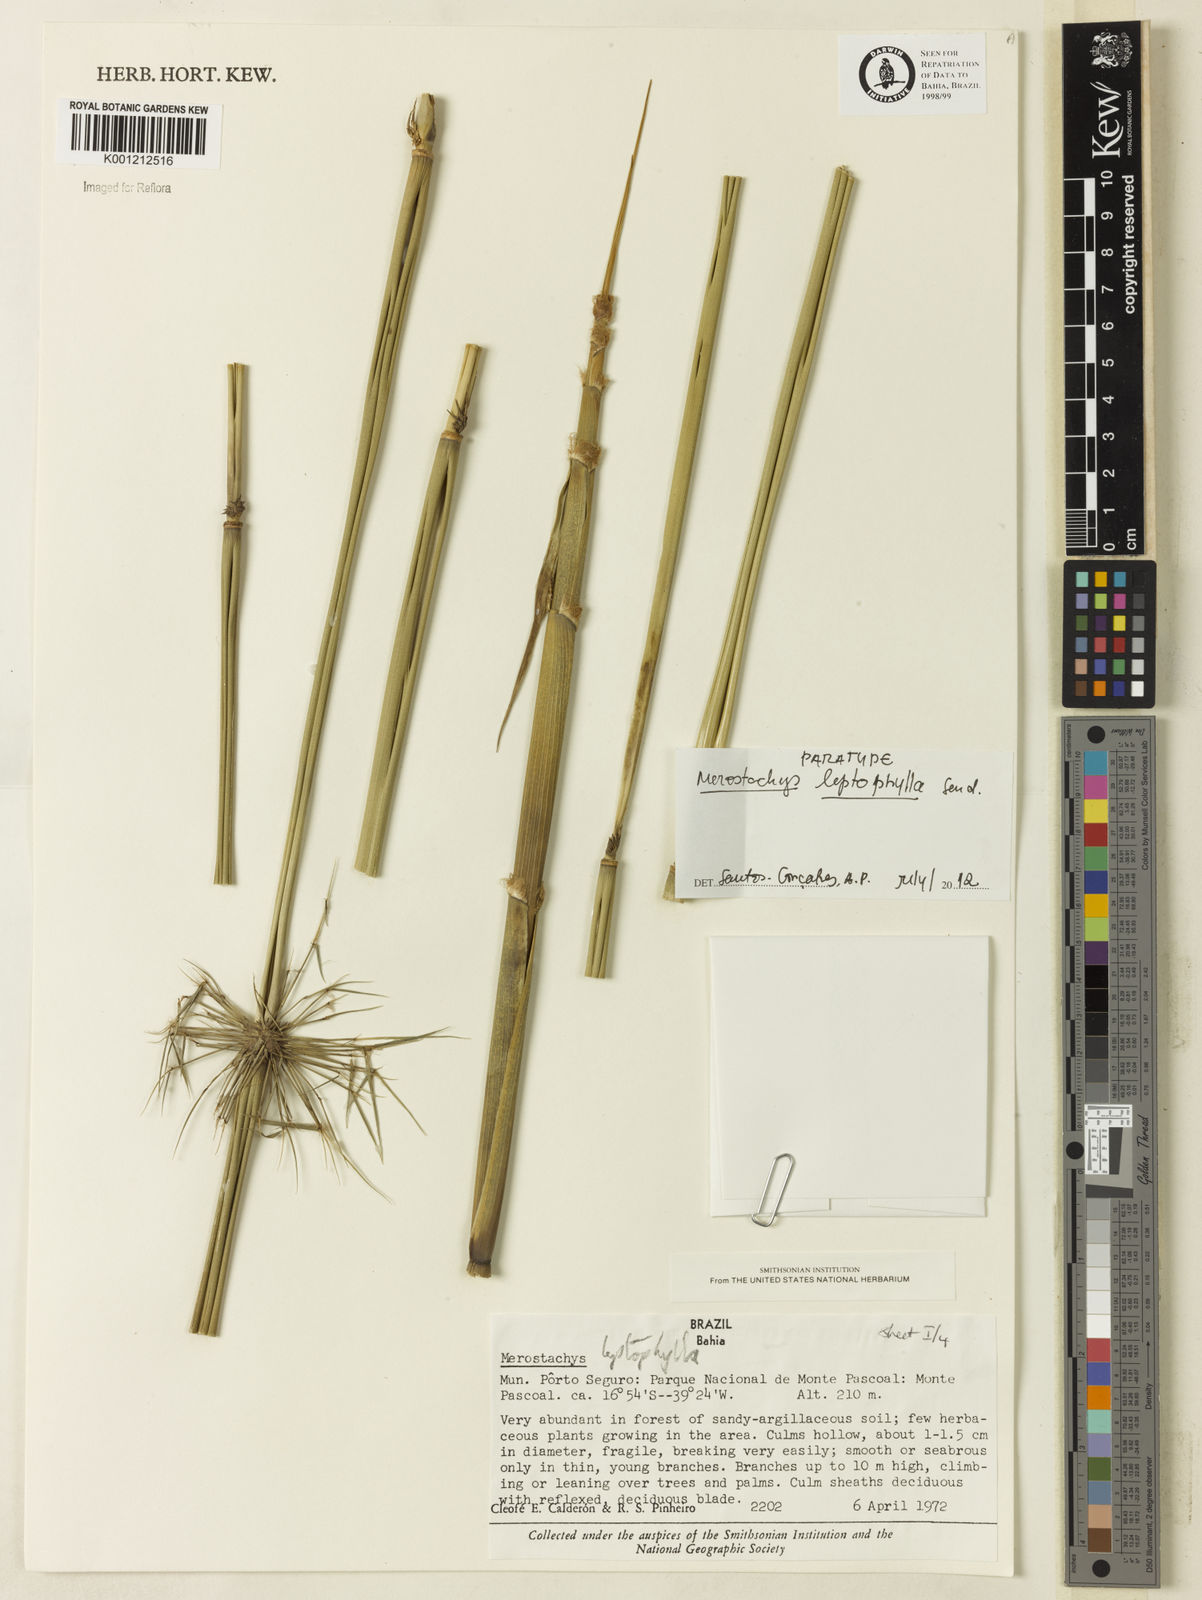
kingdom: Plantae
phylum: Tracheophyta
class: Liliopsida
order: Poales
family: Poaceae
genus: Merostachys
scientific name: Merostachys leptophylla
